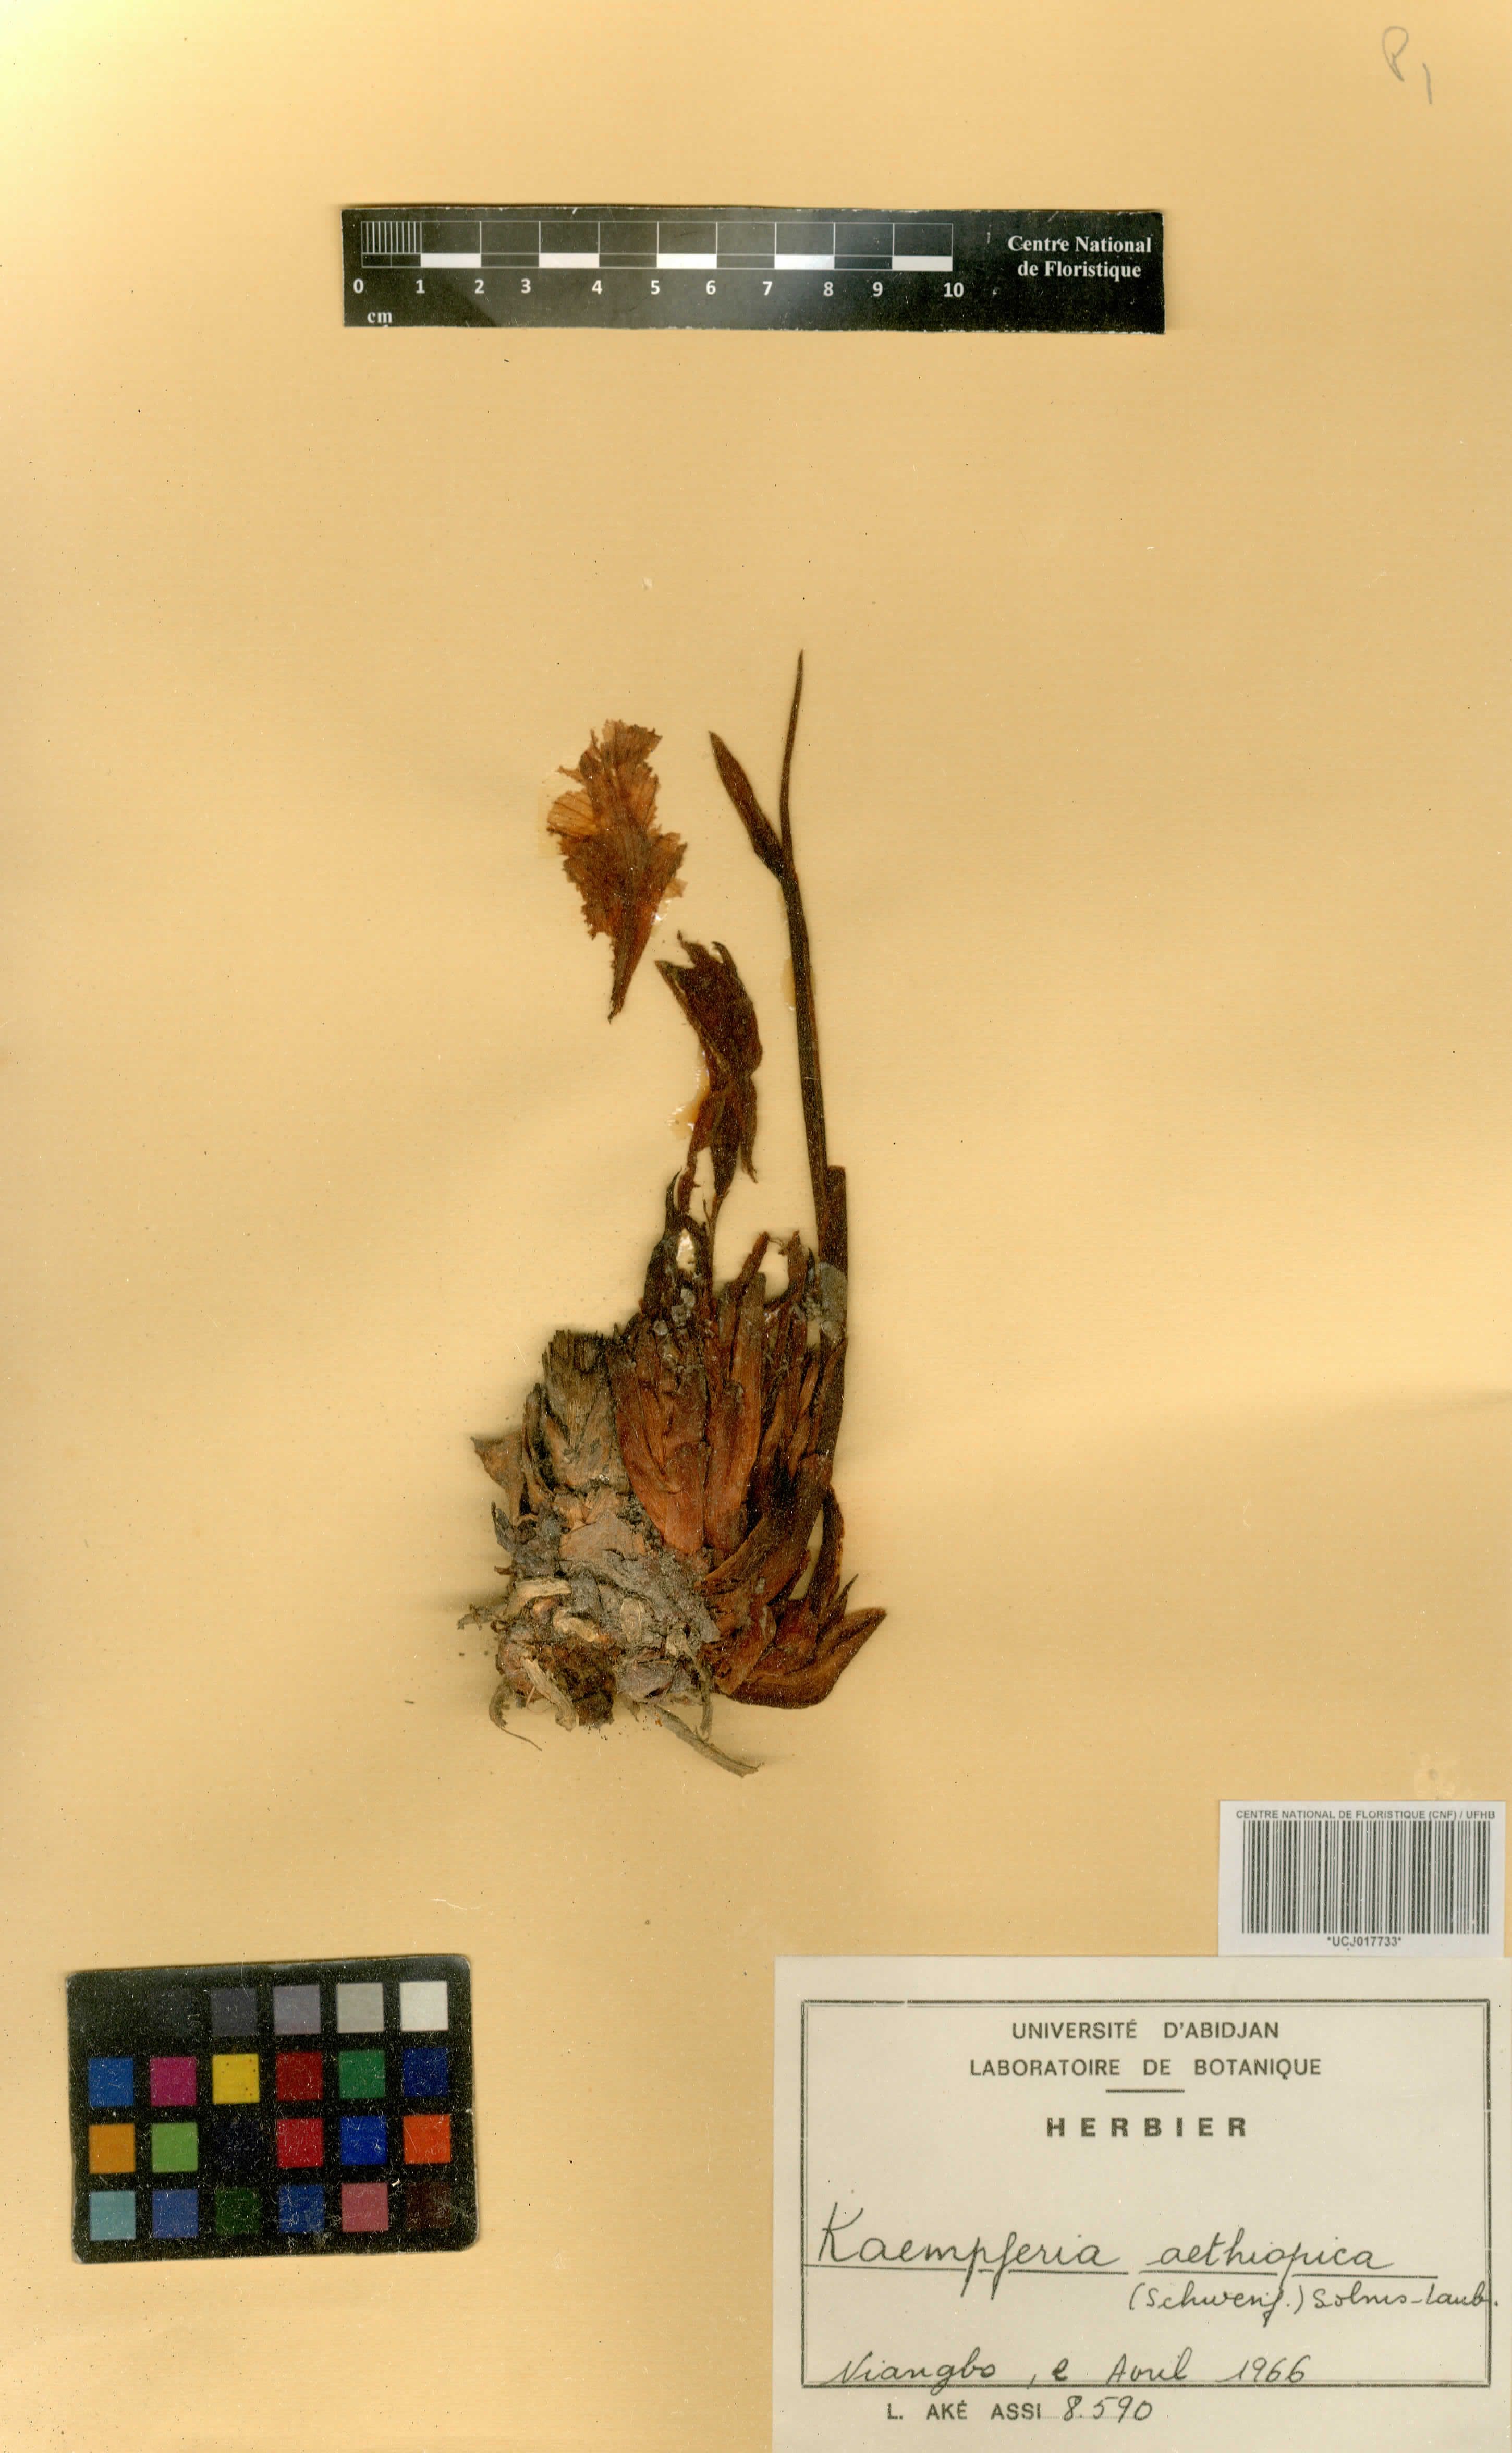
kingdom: Plantae
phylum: Tracheophyta
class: Liliopsida
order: Zingiberales
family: Zingiberaceae
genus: Kaempferia
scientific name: Kaempferia aethiopica
